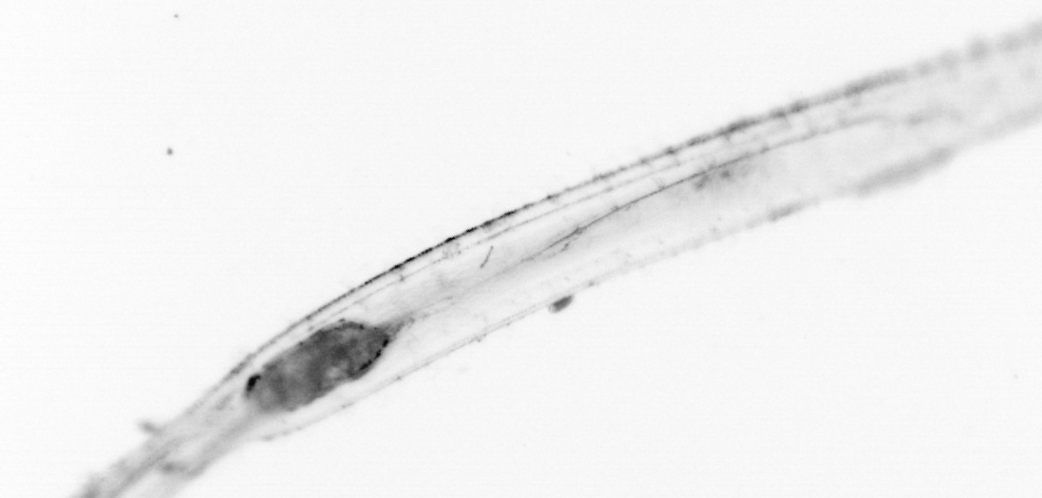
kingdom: Animalia
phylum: Chaetognatha
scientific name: Chaetognatha
